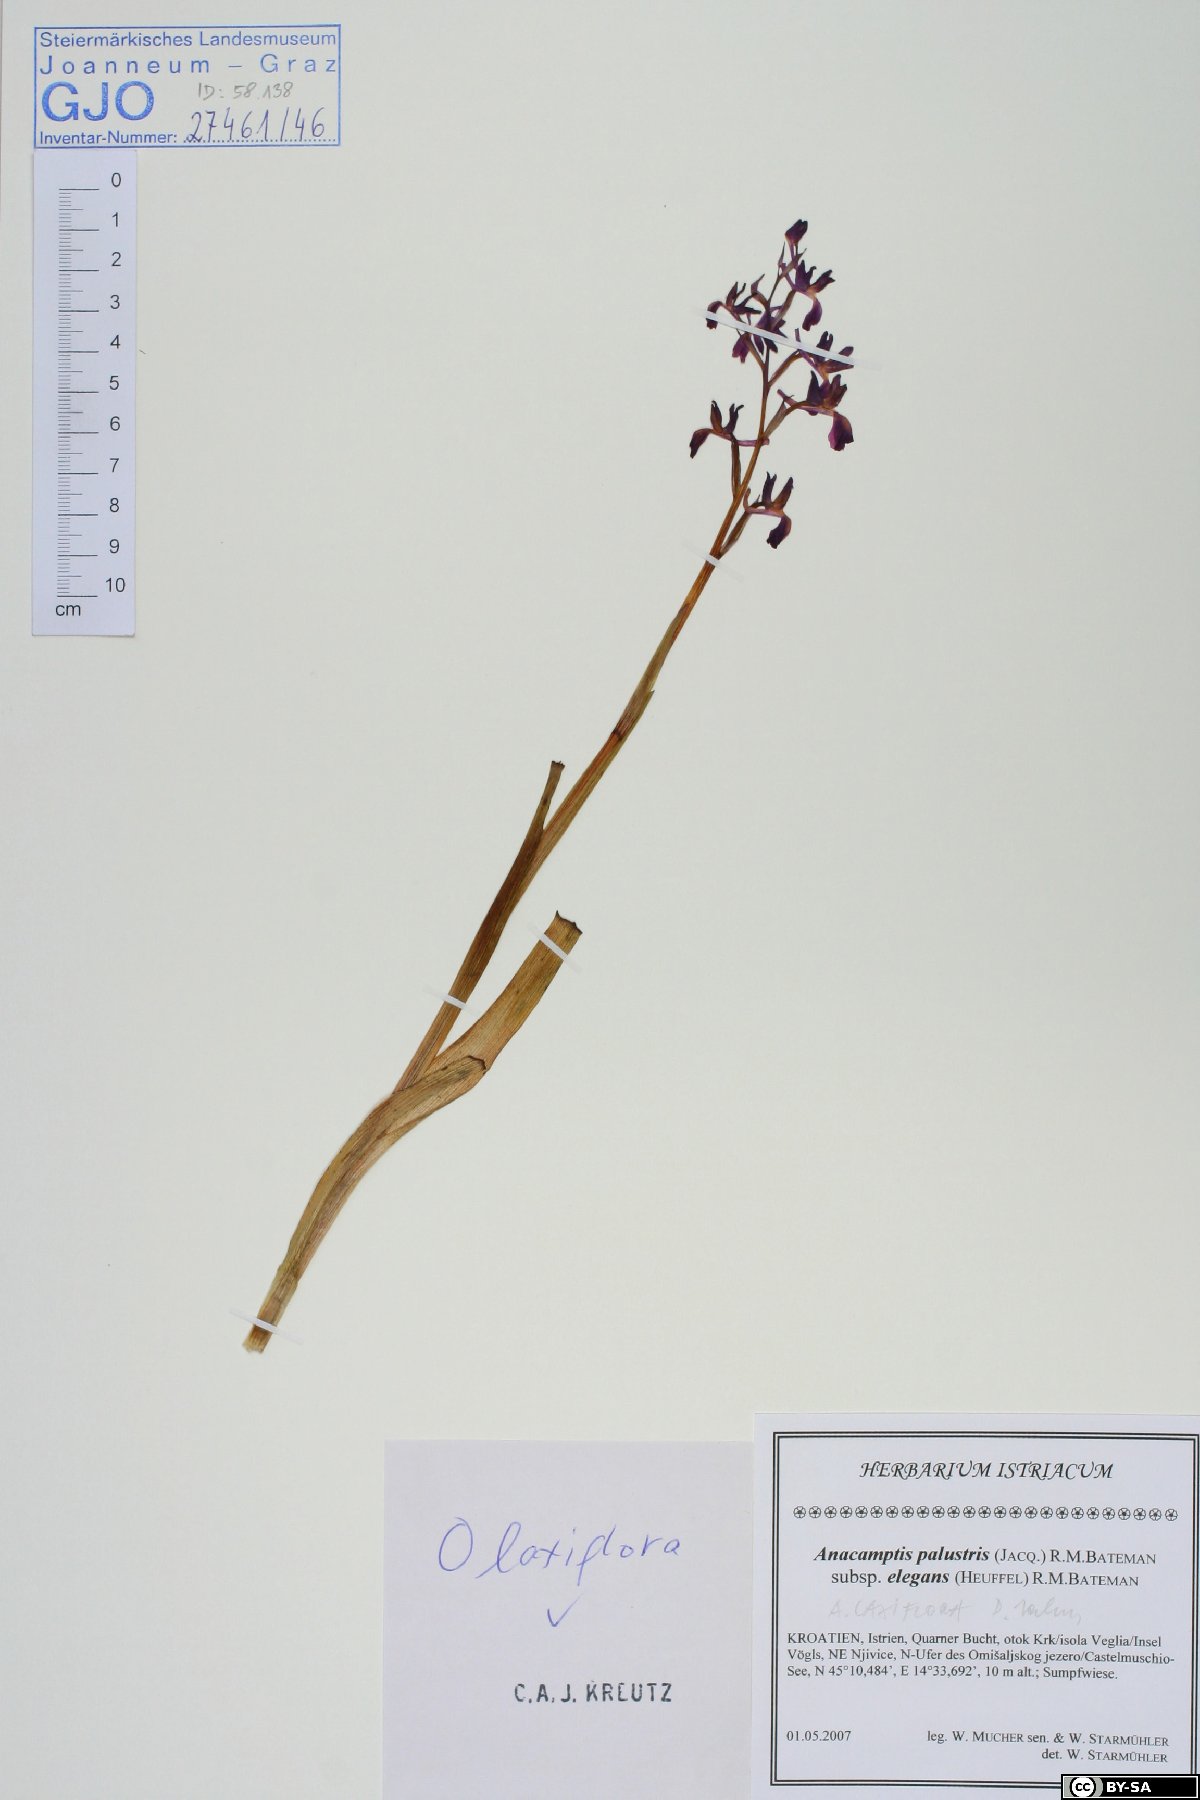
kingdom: Plantae
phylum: Tracheophyta
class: Liliopsida
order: Asparagales
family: Orchidaceae
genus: Anacamptis
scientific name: Anacamptis laxiflora
